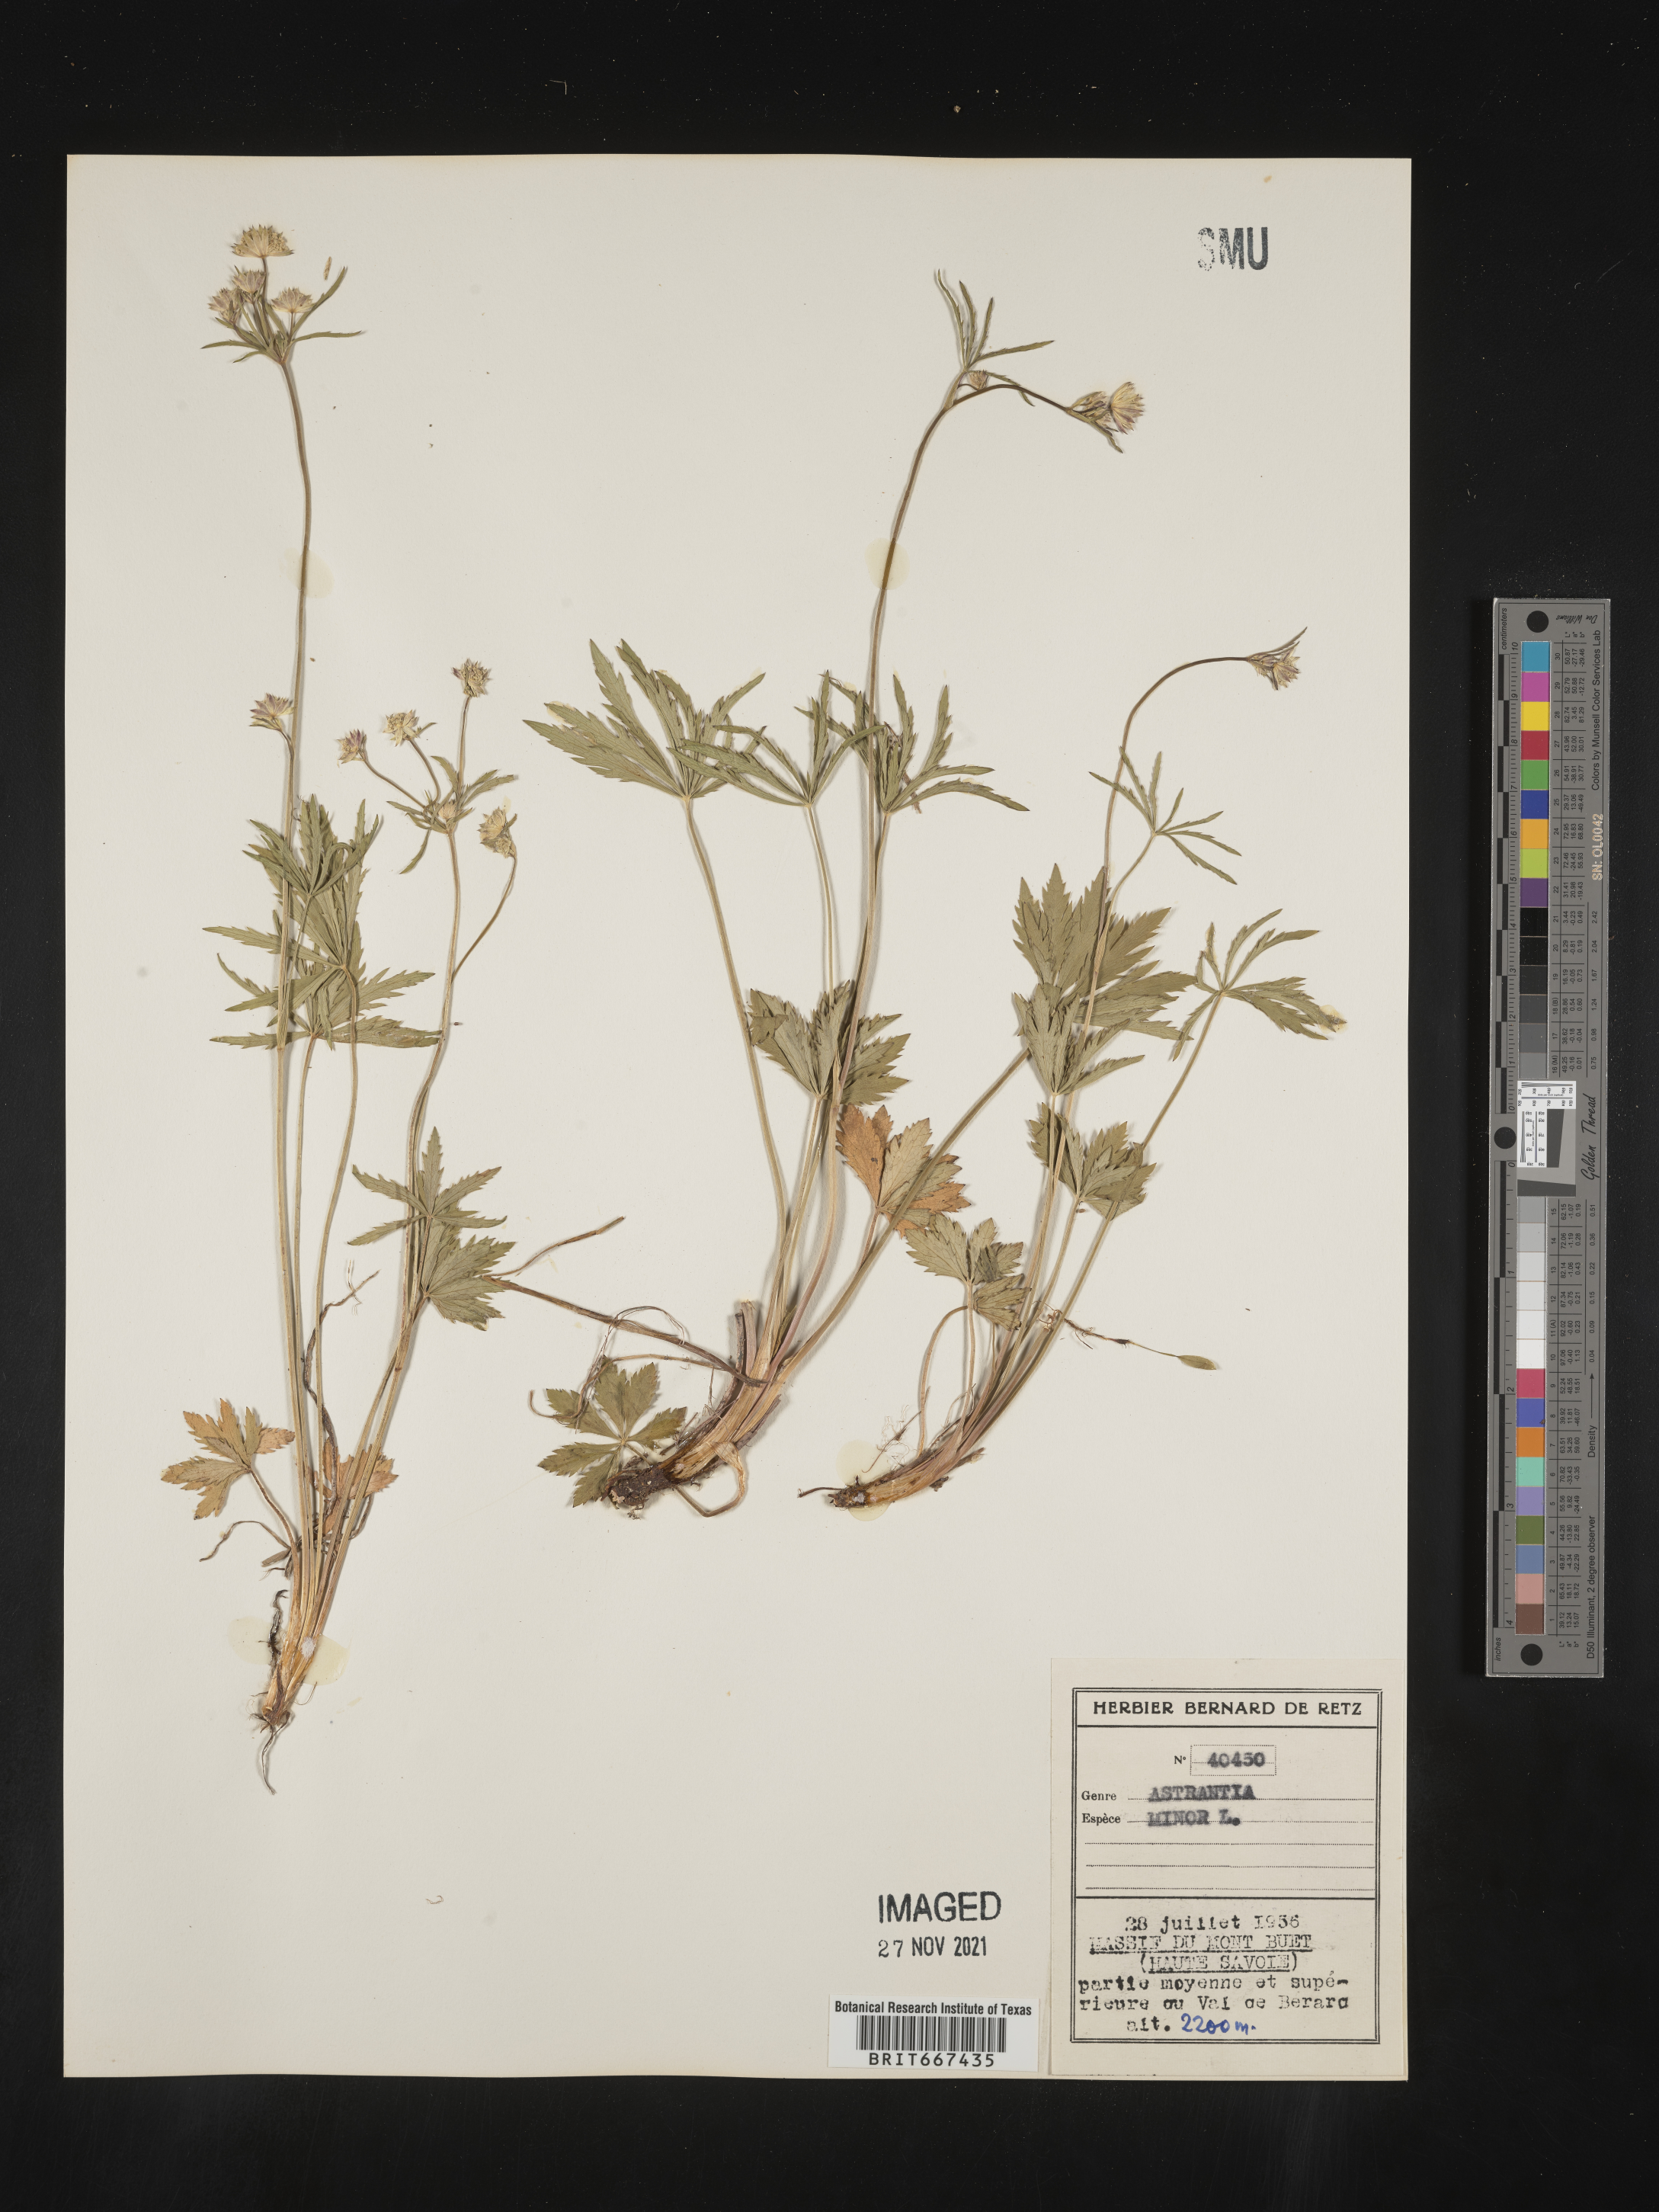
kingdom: Plantae
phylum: Tracheophyta
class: Magnoliopsida
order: Apiales
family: Apiaceae
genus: Astrantia
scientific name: Astrantia
